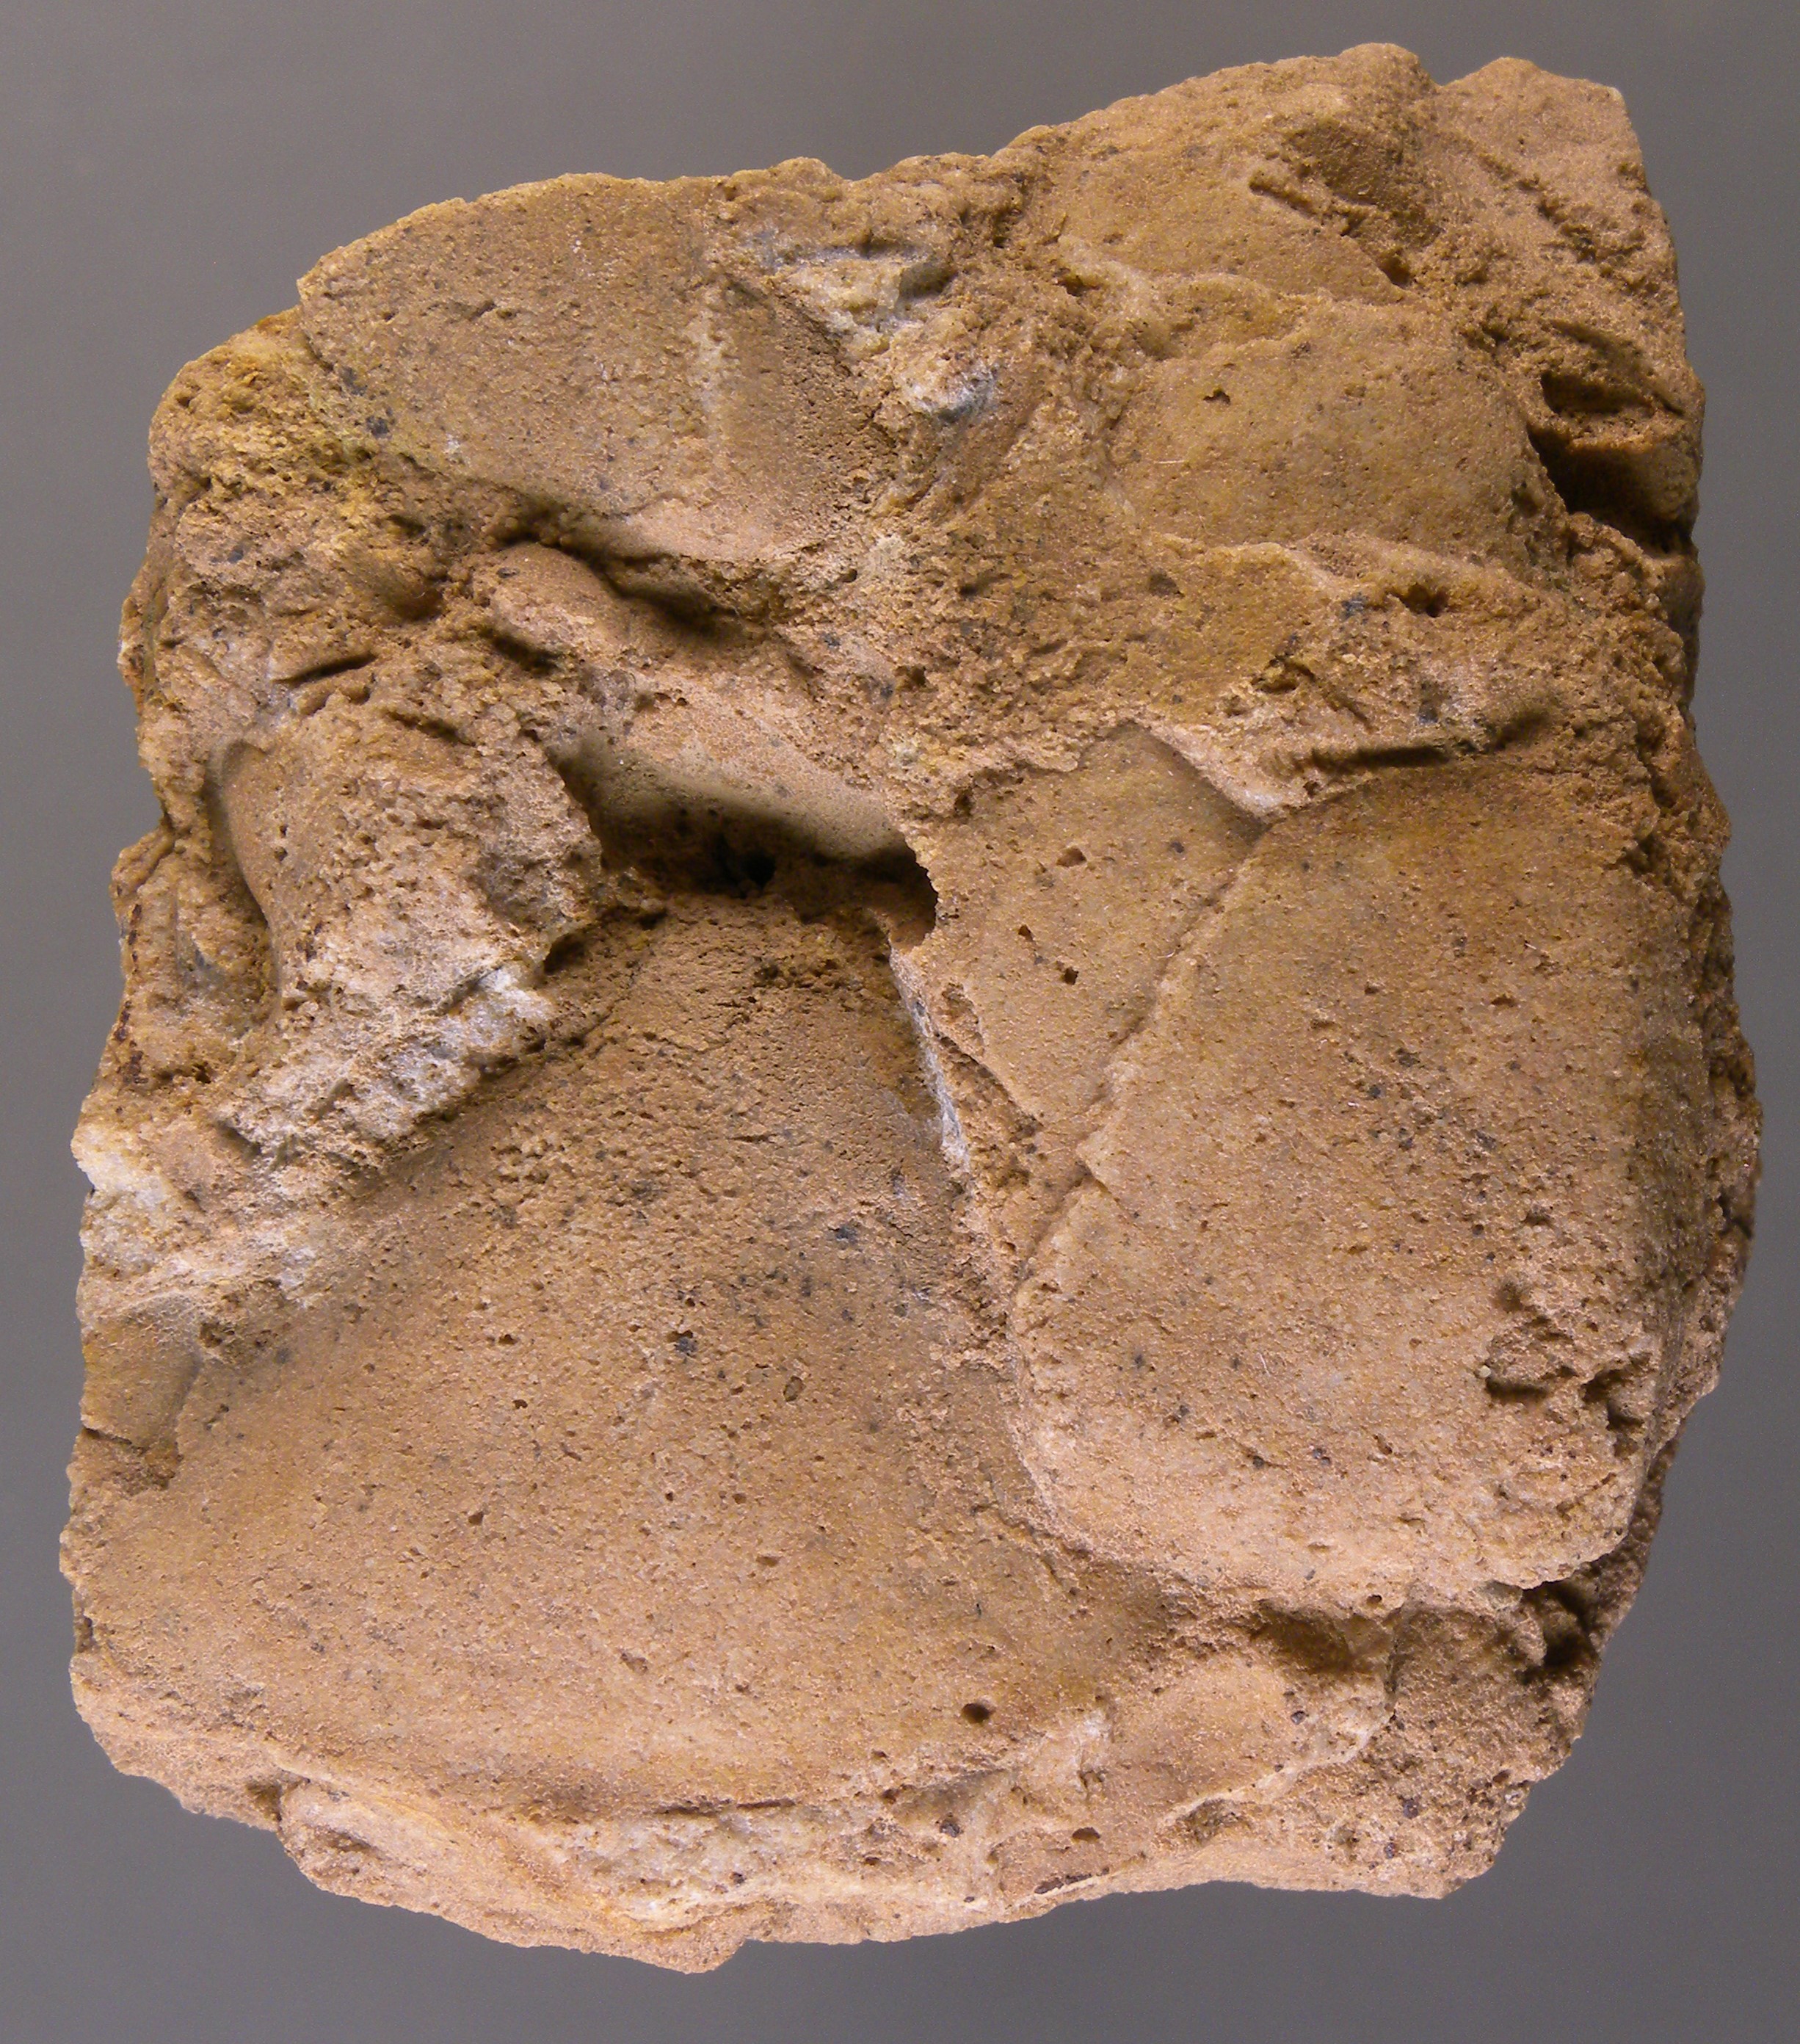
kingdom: Animalia
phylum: Mollusca
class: Bivalvia
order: Trigoniida
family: Eoschizodidae
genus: Eoschizodus
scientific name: Eoschizodus
